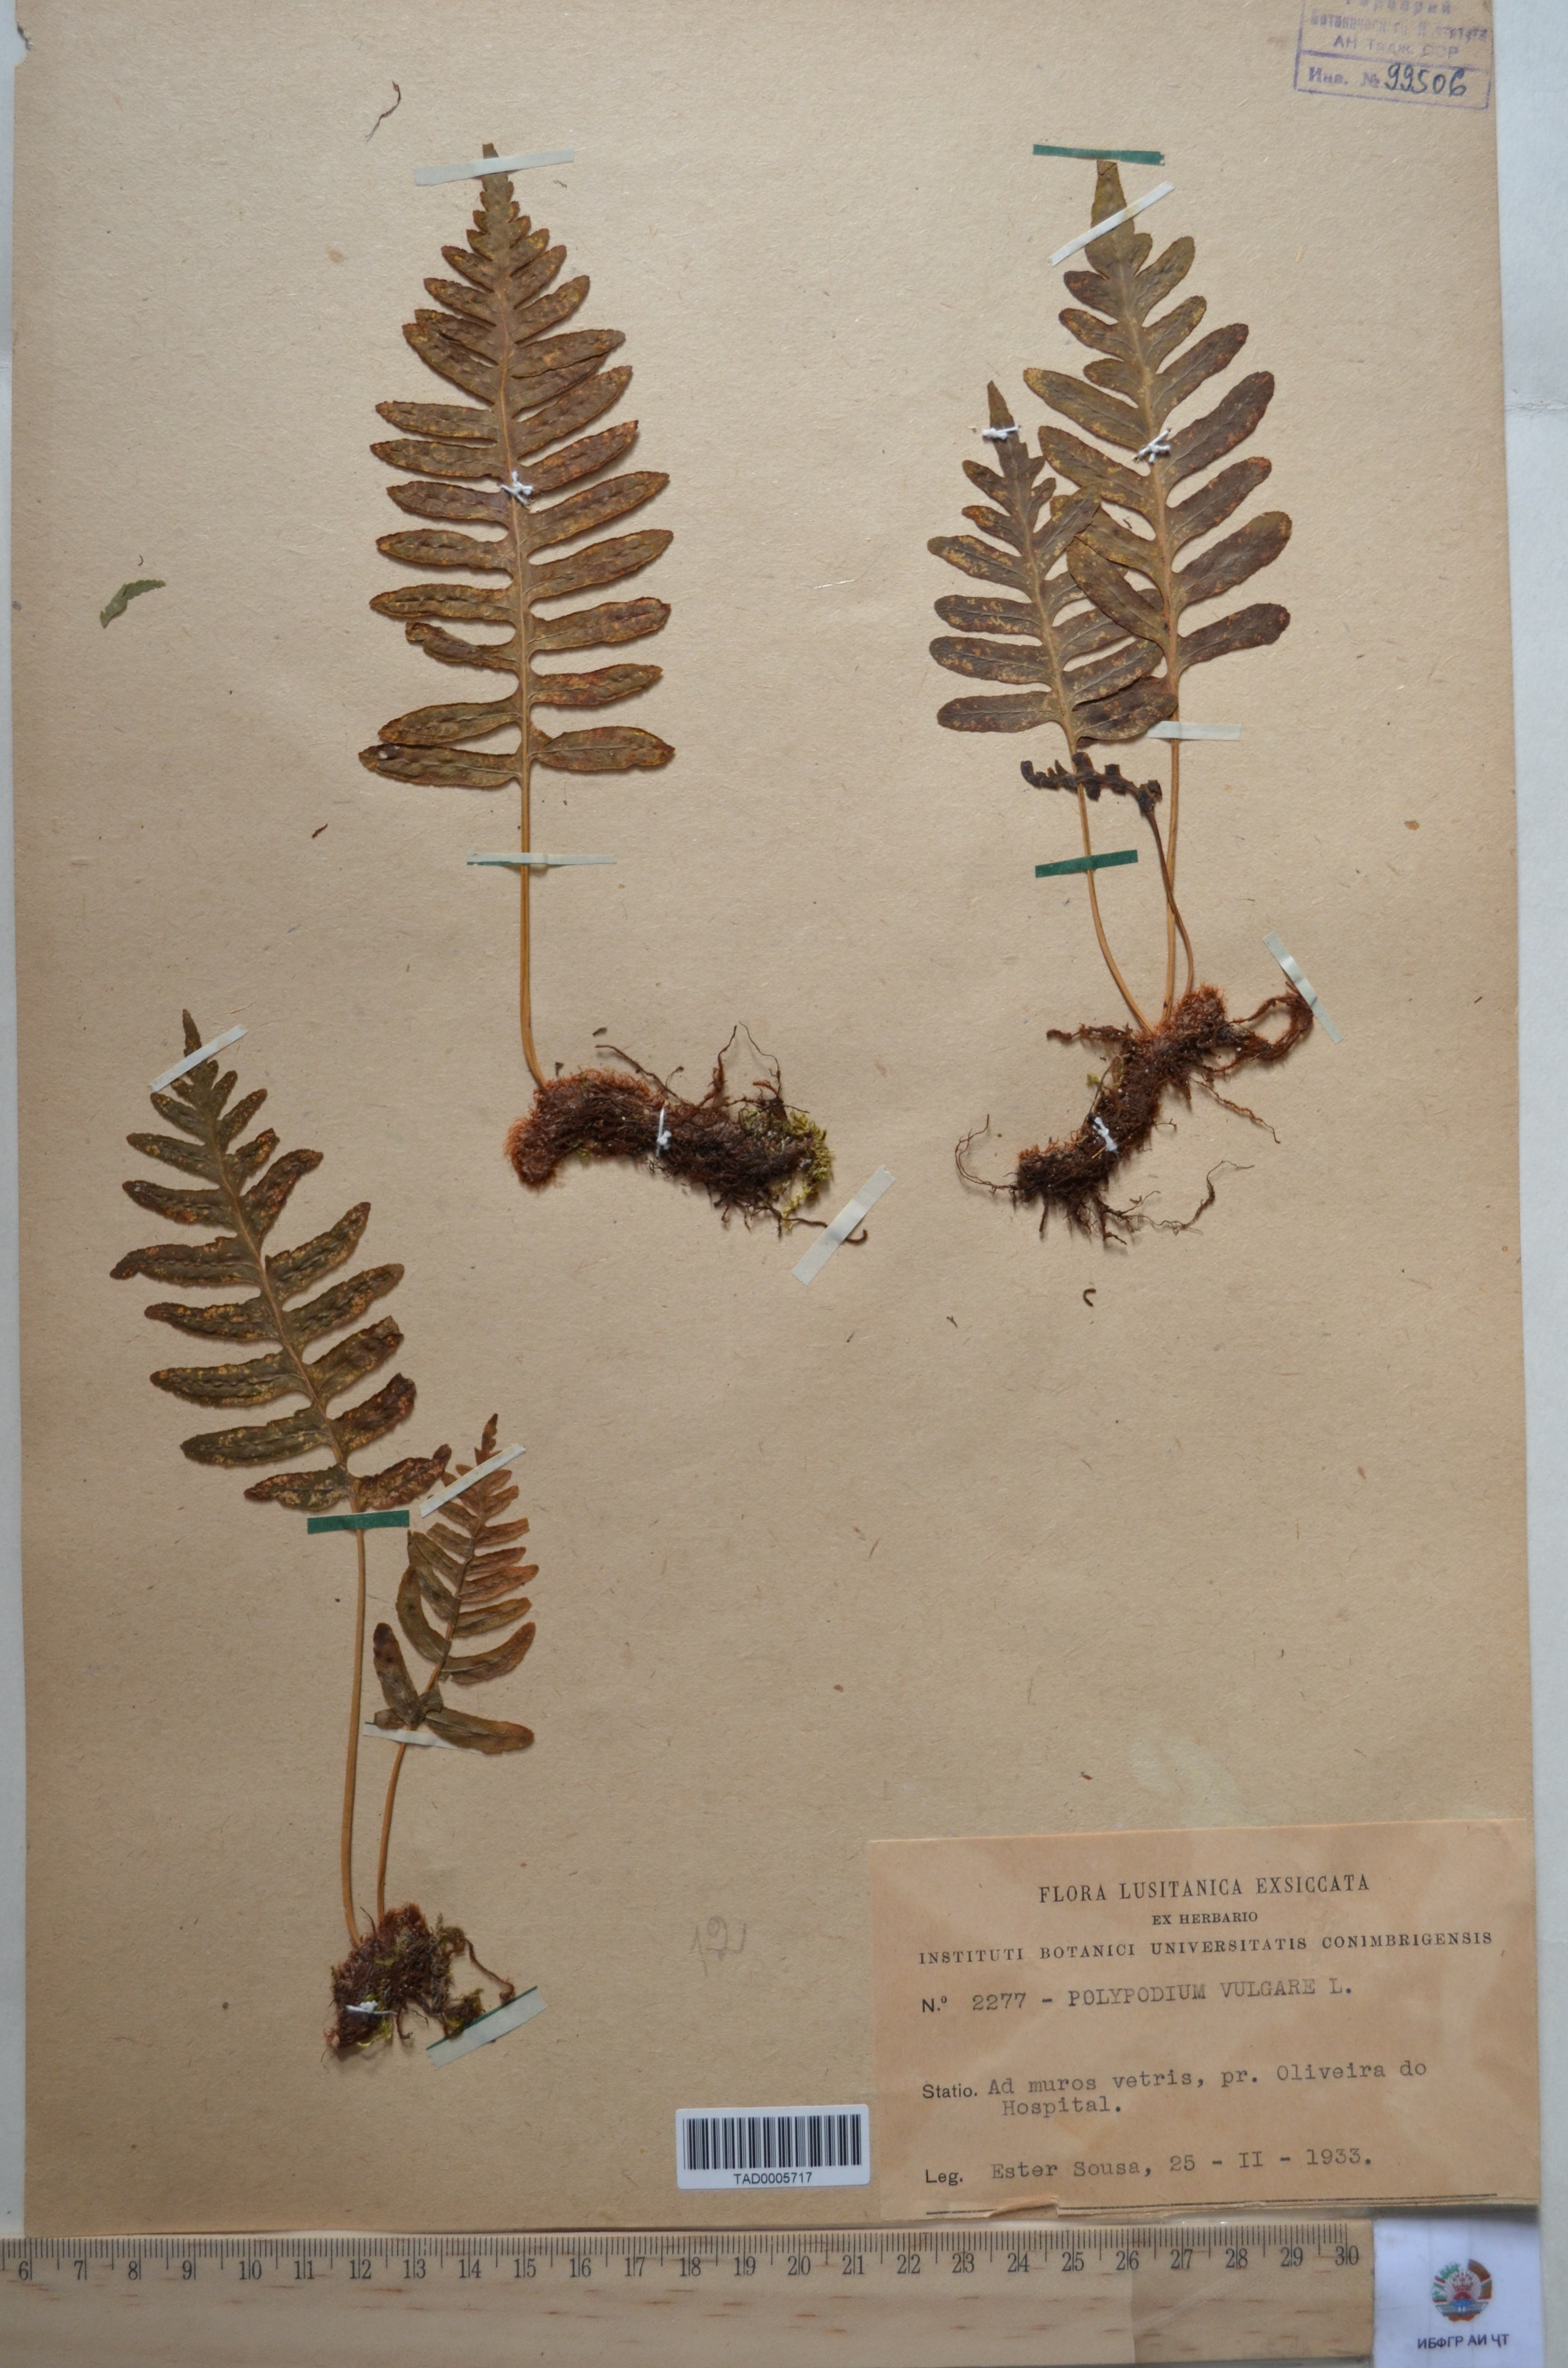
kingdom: Plantae
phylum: Tracheophyta
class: Polypodiopsida
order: Polypodiales
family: Polypodiaceae
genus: Polypodium
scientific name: Polypodium vulgare
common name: Common polypody
